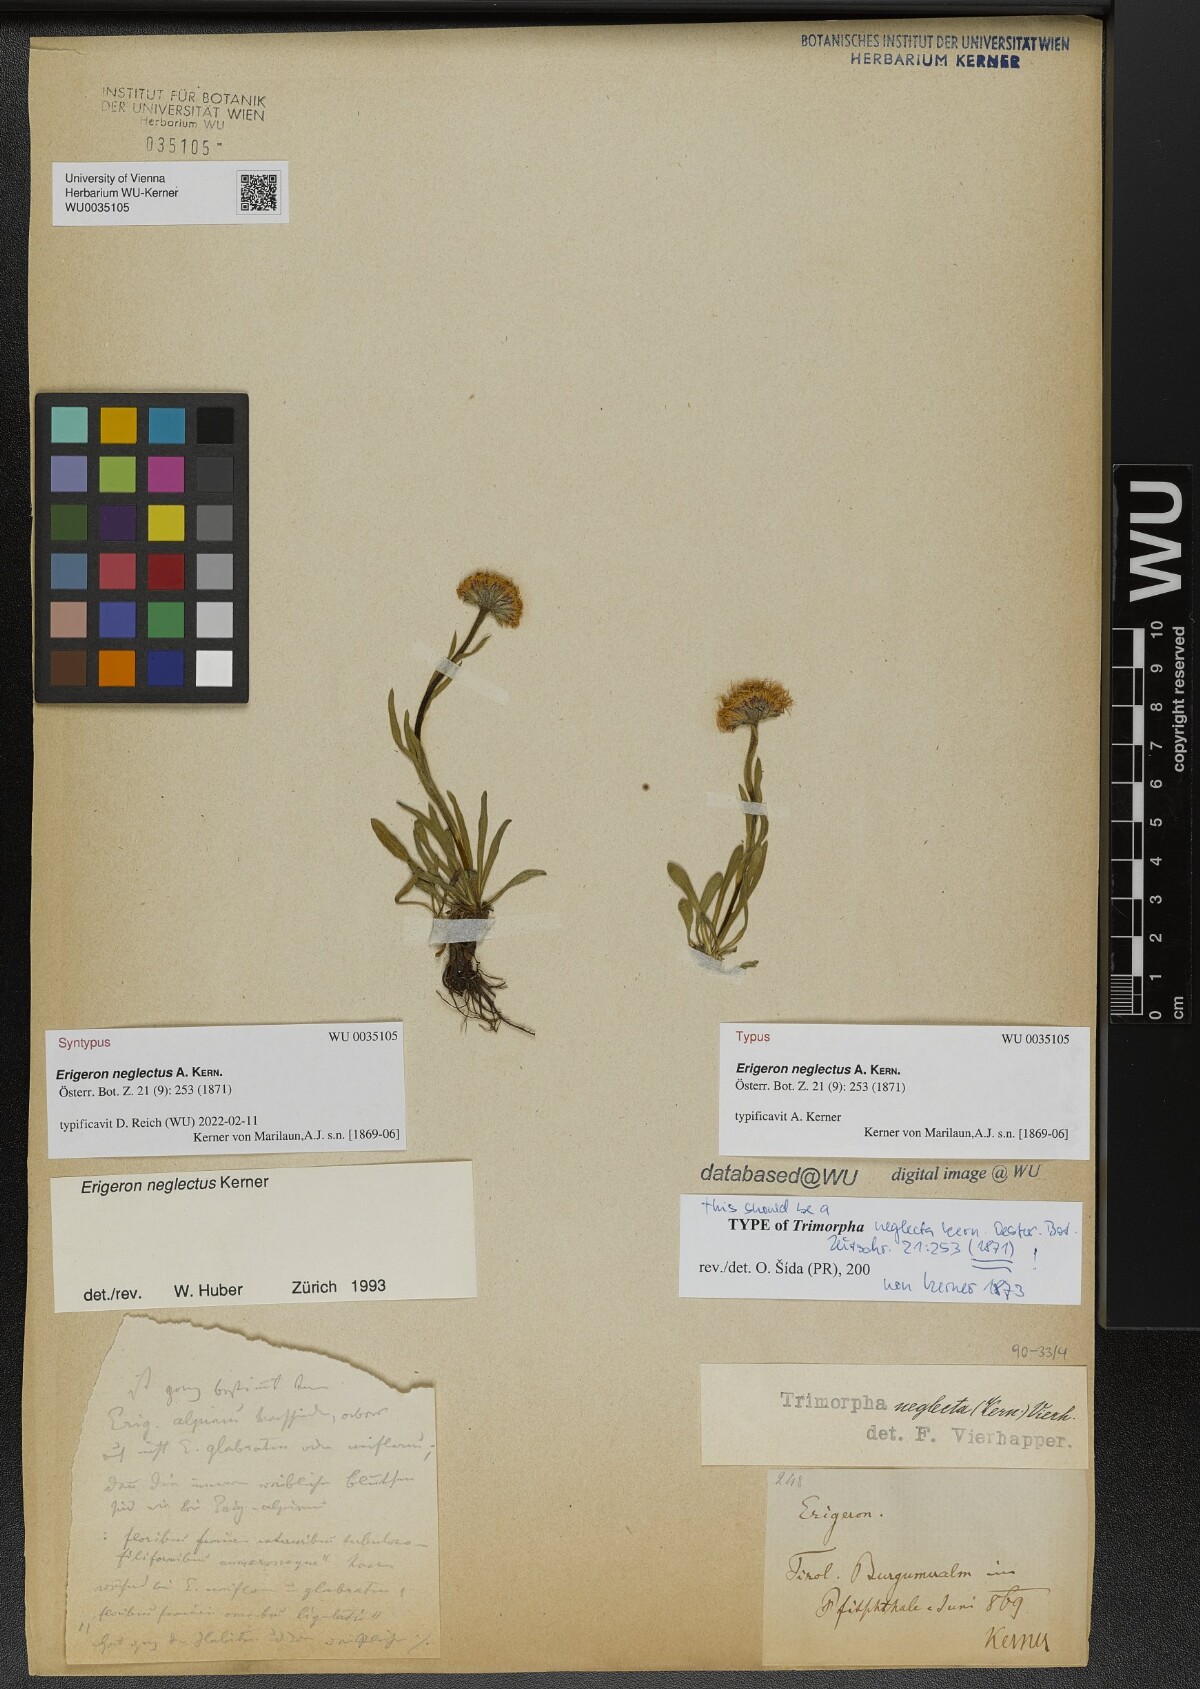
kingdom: Plantae
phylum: Tracheophyta
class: Magnoliopsida
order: Asterales
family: Asteraceae
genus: Erigeron
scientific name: Erigeron neglectus
